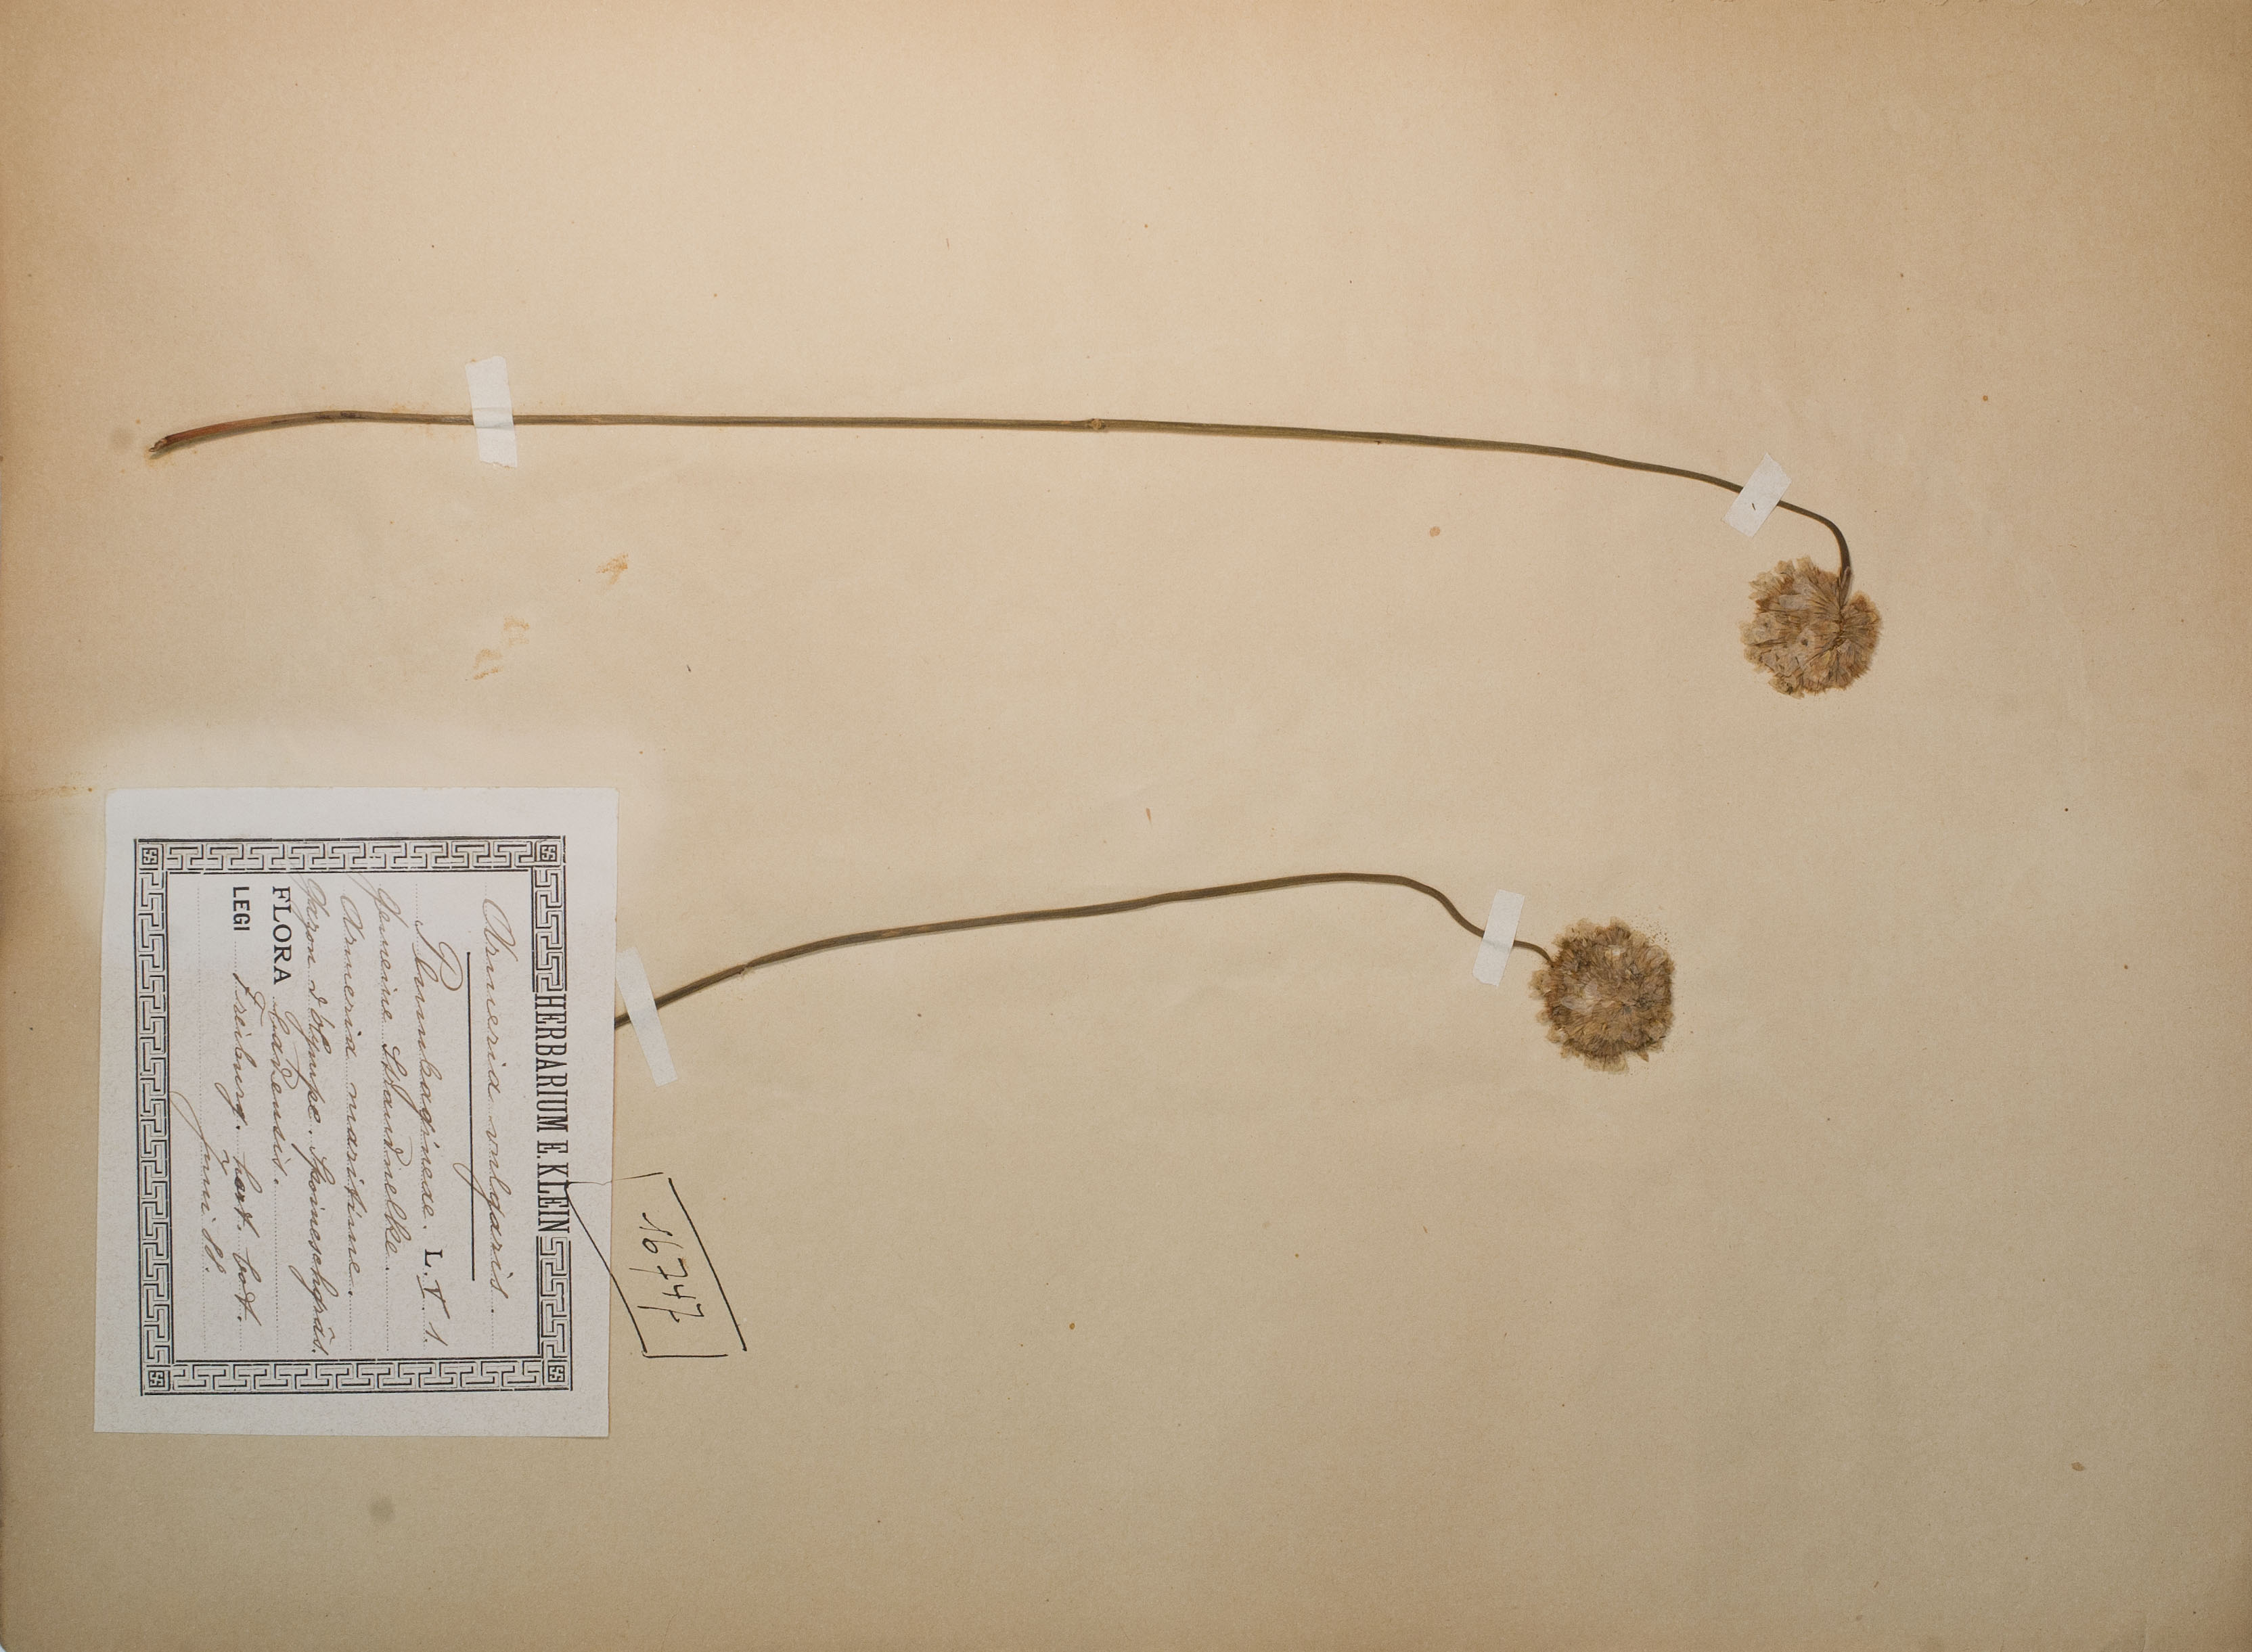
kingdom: Plantae
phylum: Tracheophyta
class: Magnoliopsida
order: Caryophyllales
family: Plumbaginaceae
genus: Armeria
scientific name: Armeria maritima
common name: Thrift
